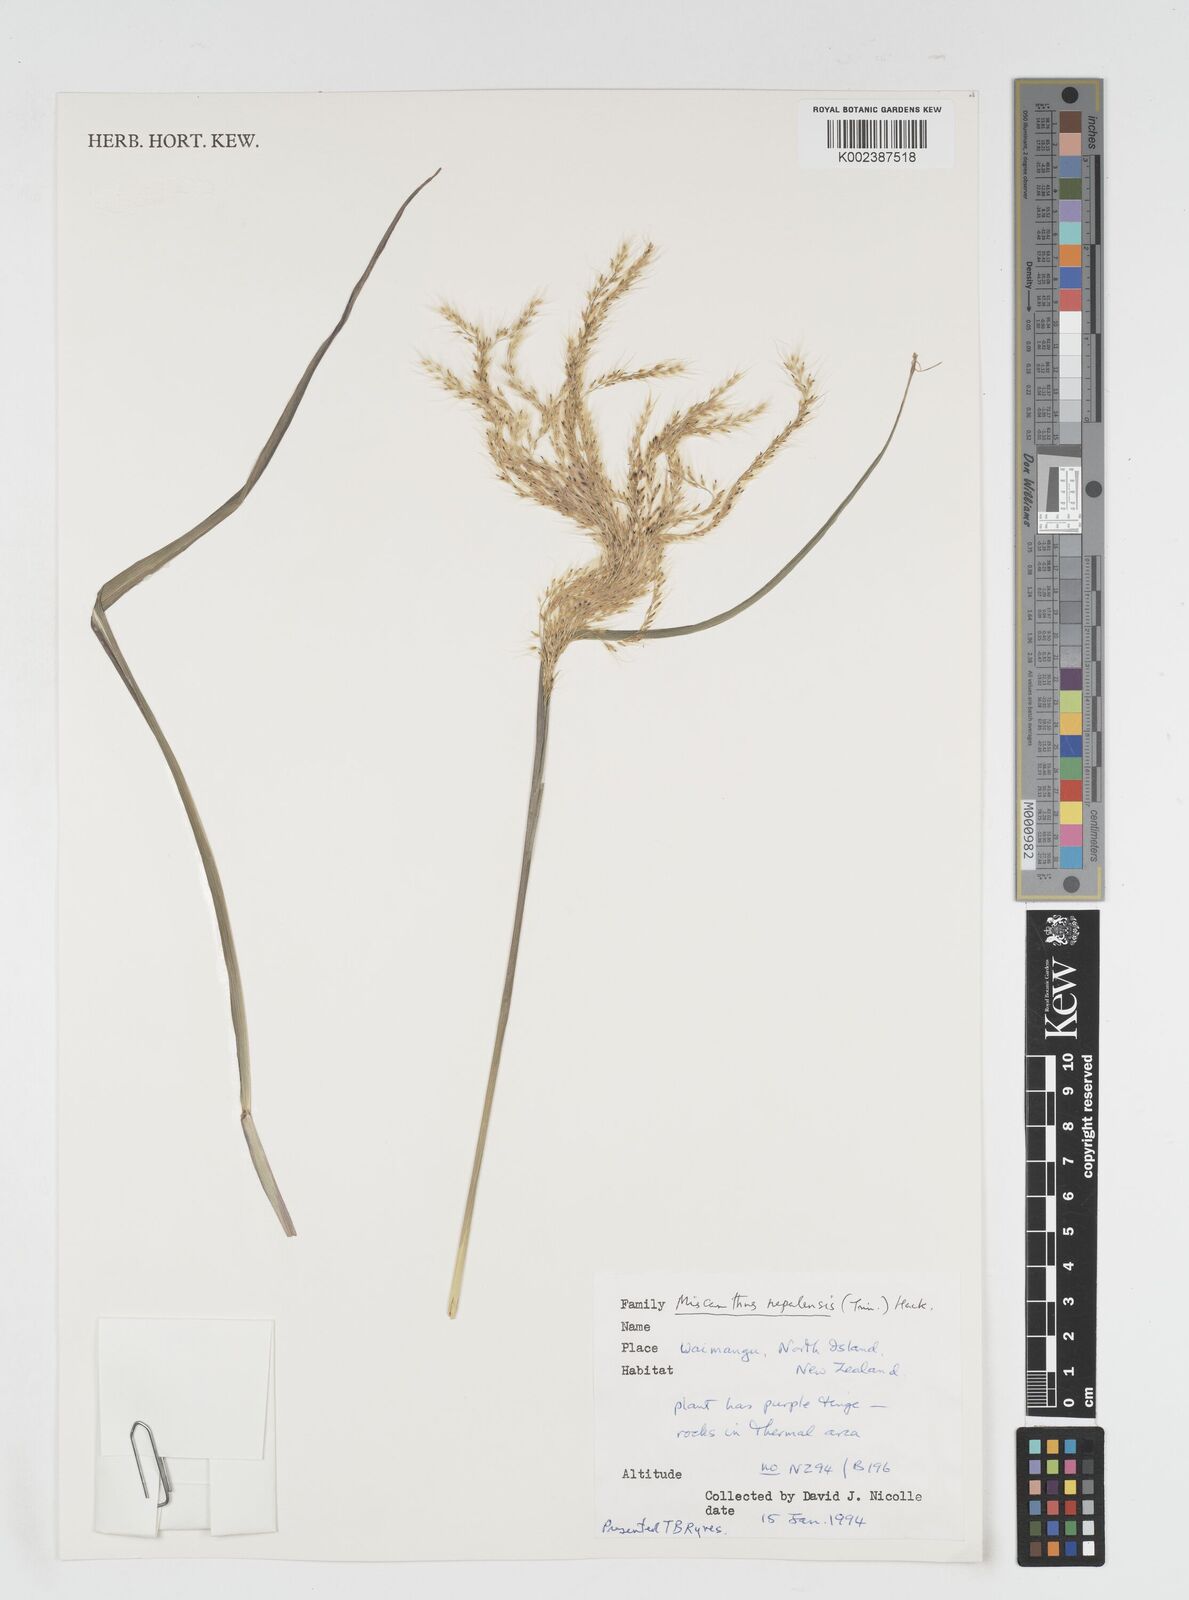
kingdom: Plantae
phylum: Tracheophyta
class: Liliopsida
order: Poales
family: Poaceae
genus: Miscanthus
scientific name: Miscanthus nepalensis
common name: Nepal silver grass
